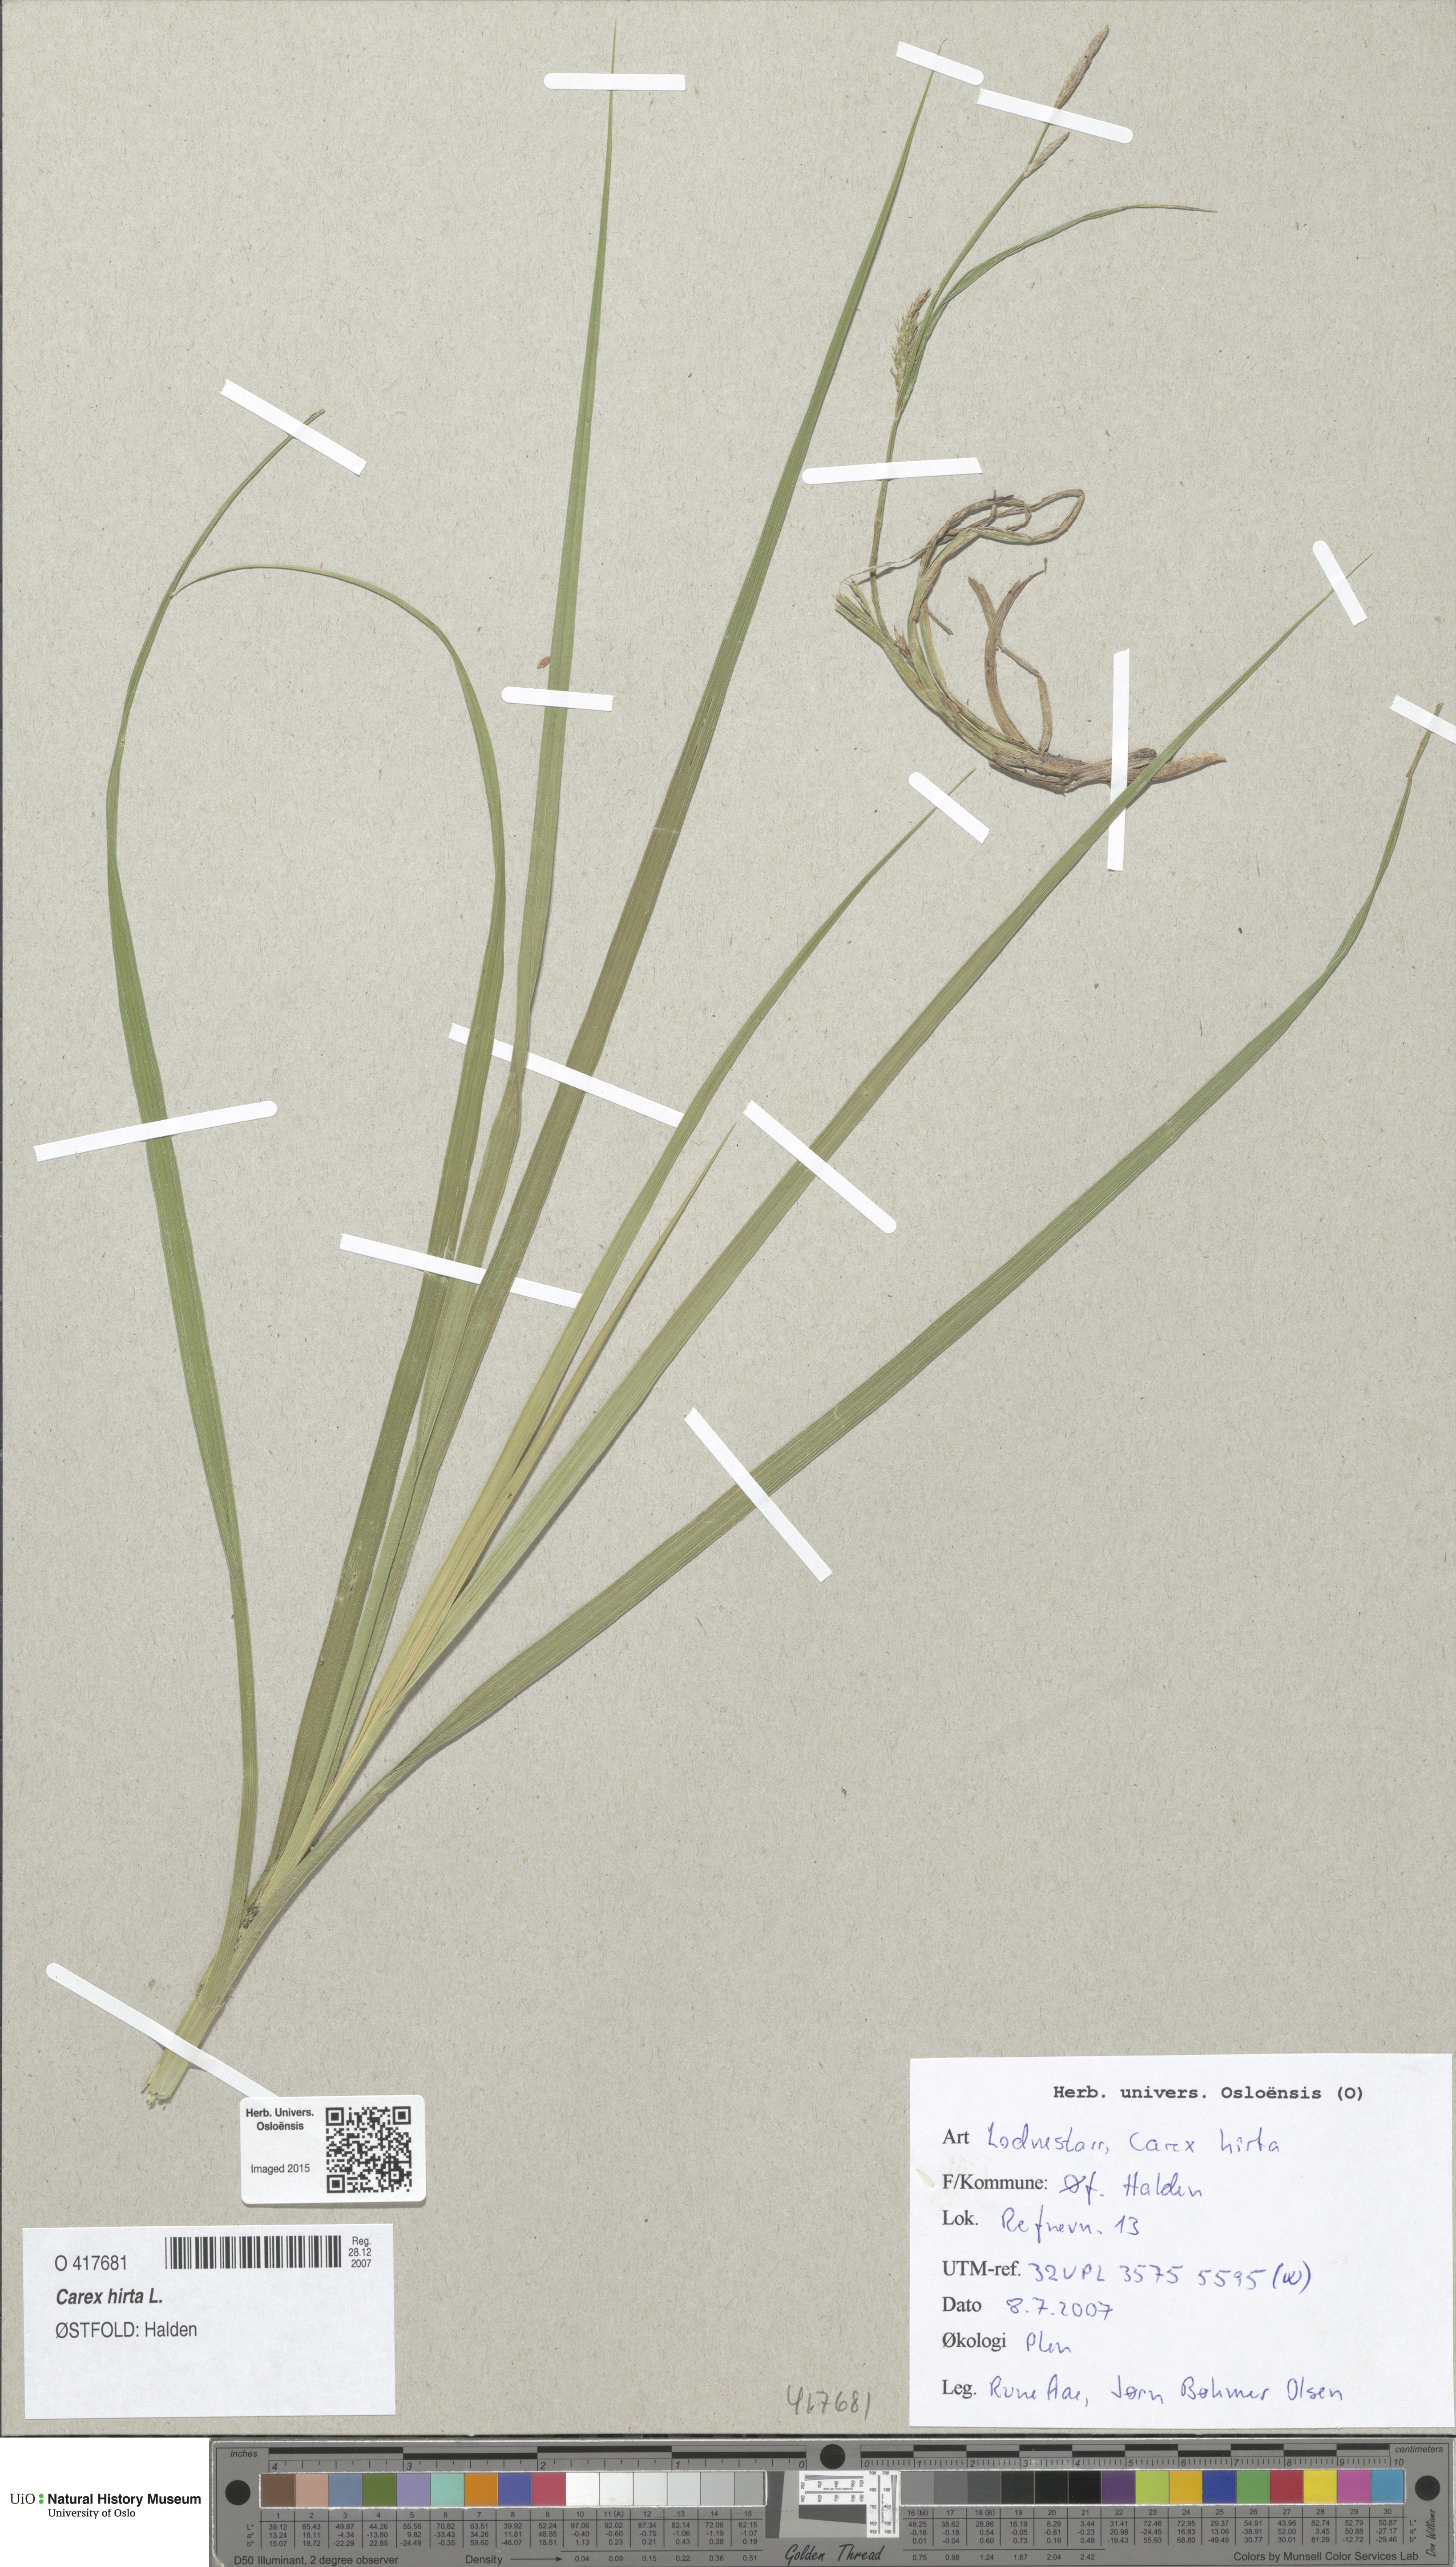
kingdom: Plantae
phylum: Tracheophyta
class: Liliopsida
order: Poales
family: Cyperaceae
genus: Carex
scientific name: Carex hirta
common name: Hairy sedge
